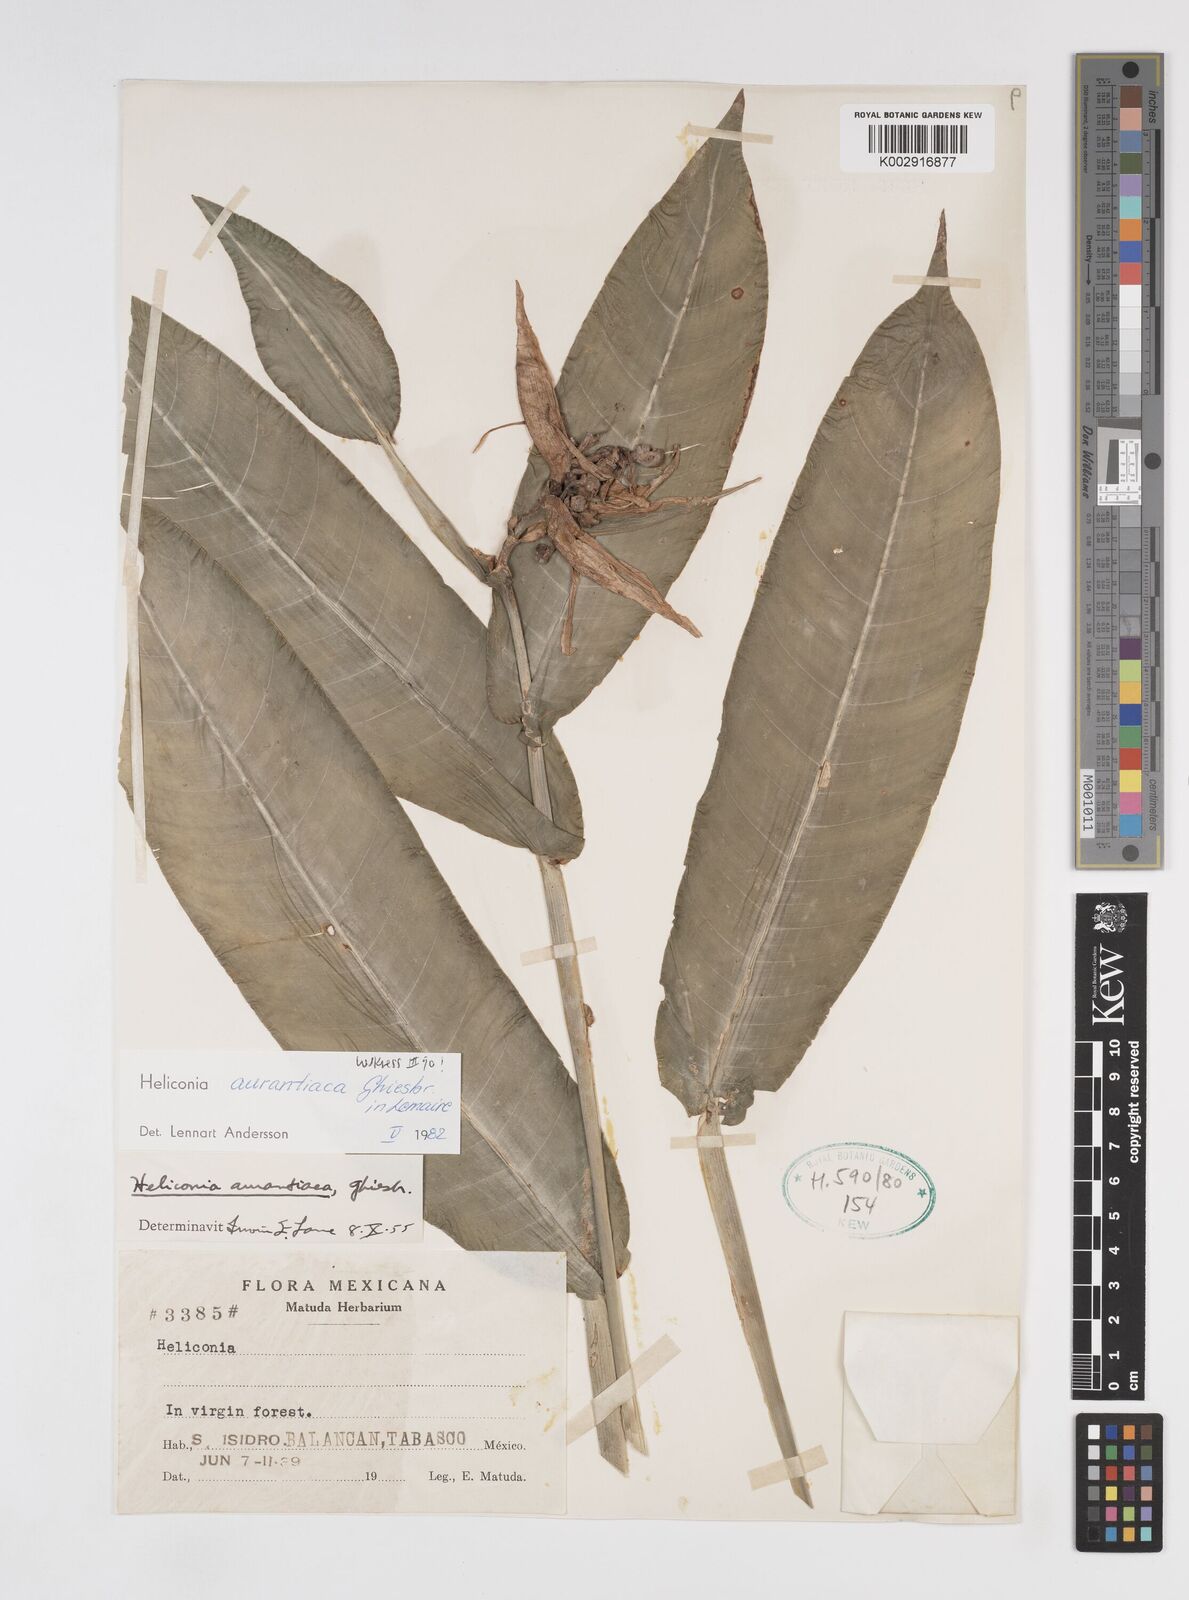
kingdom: Plantae
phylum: Tracheophyta
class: Liliopsida
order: Zingiberales
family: Heliconiaceae
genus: Heliconia
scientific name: Heliconia aurantiaca
